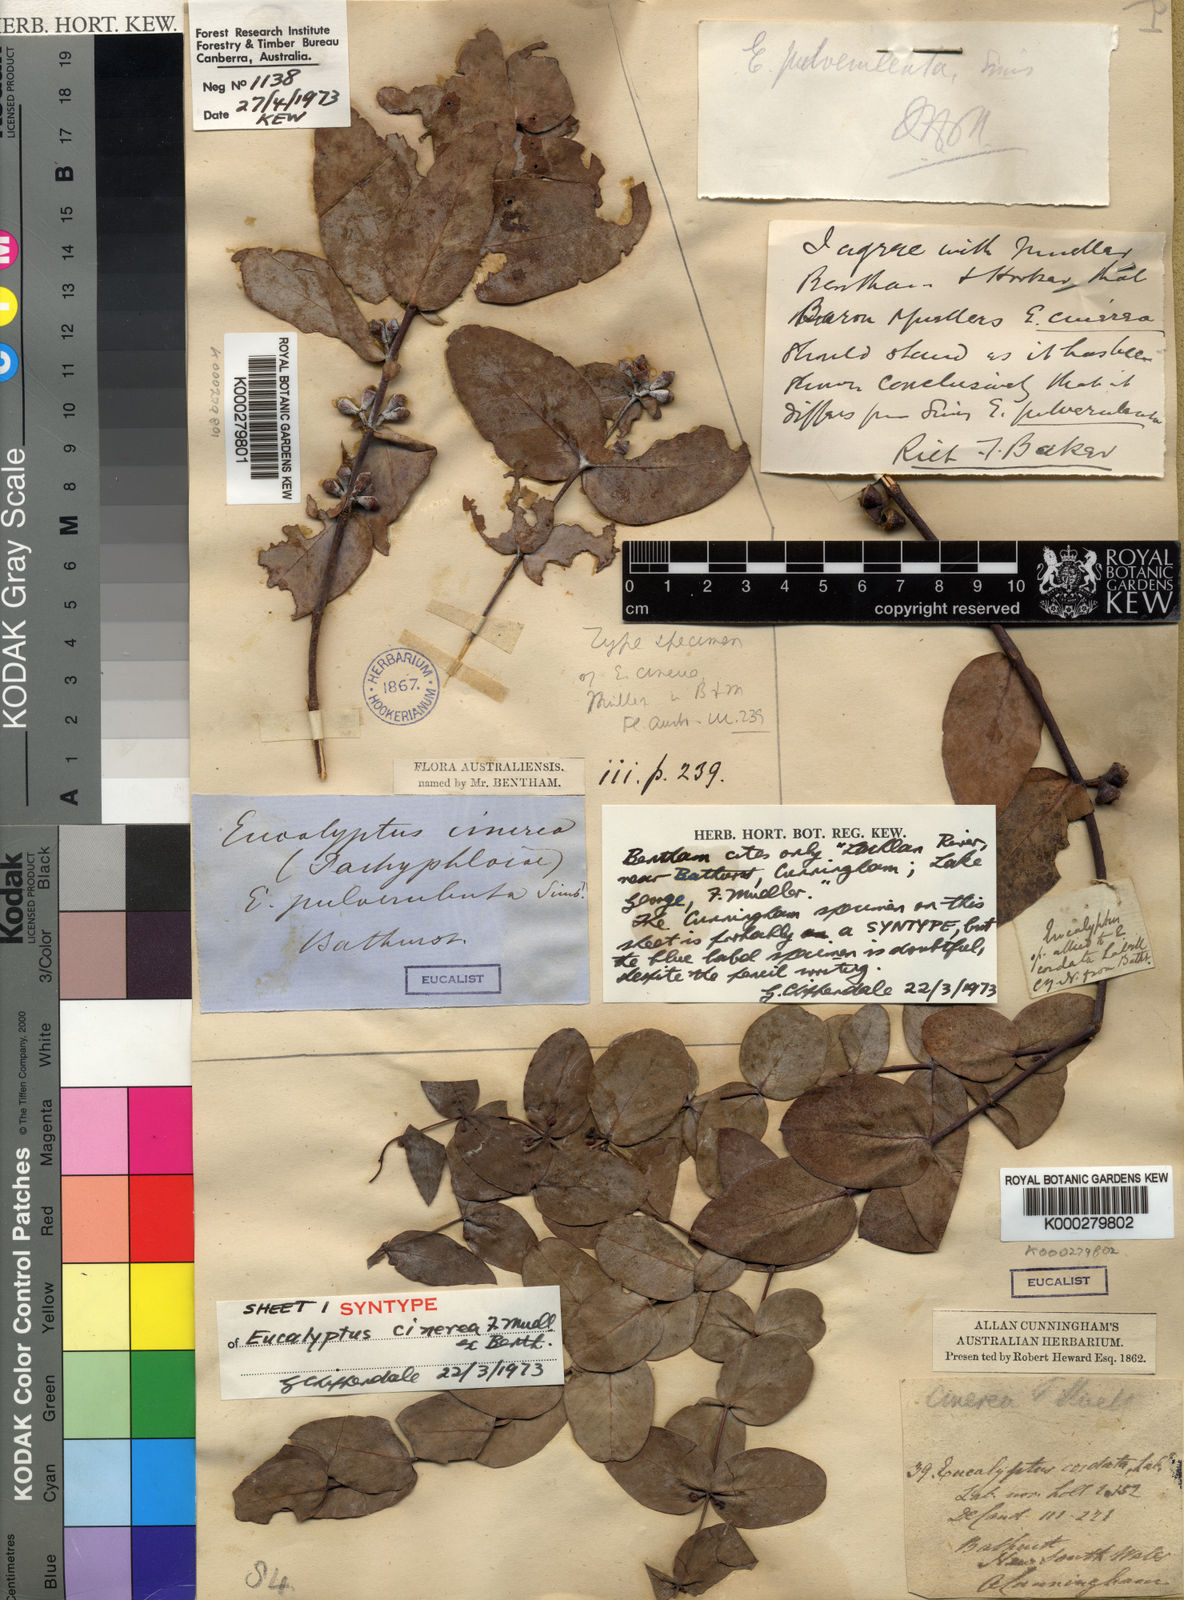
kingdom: Plantae
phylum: Tracheophyta
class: Magnoliopsida
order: Myrtales
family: Myrtaceae
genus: Eucalyptus
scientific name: Eucalyptus cinerea
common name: Argyle apple
